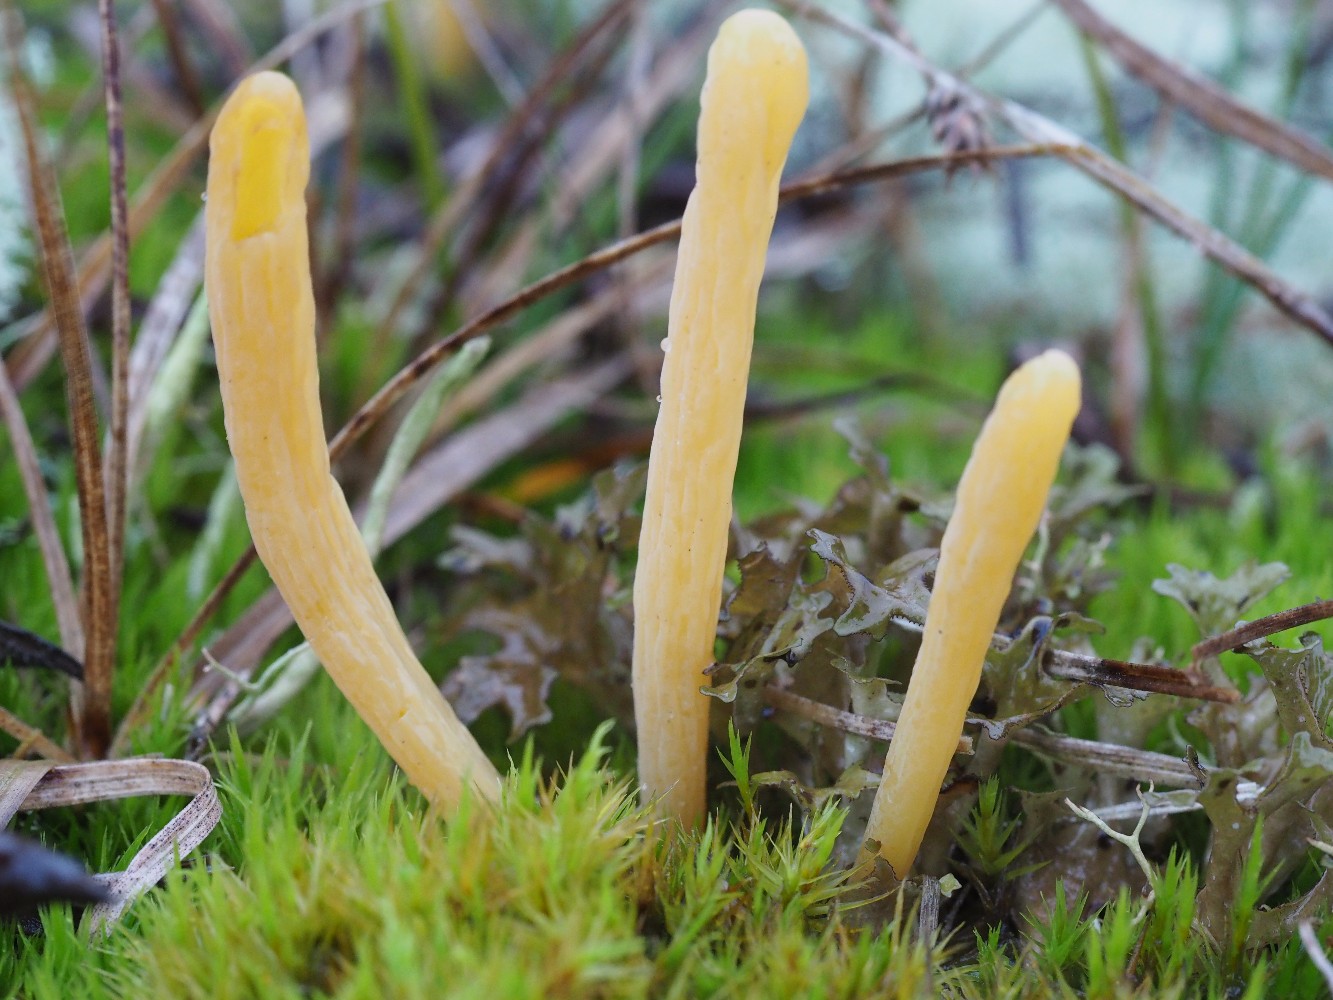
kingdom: Fungi
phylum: Basidiomycota
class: Agaricomycetes
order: Agaricales
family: Clavariaceae
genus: Clavaria
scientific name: Clavaria argillacea
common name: lerfarvet køllesvamp
